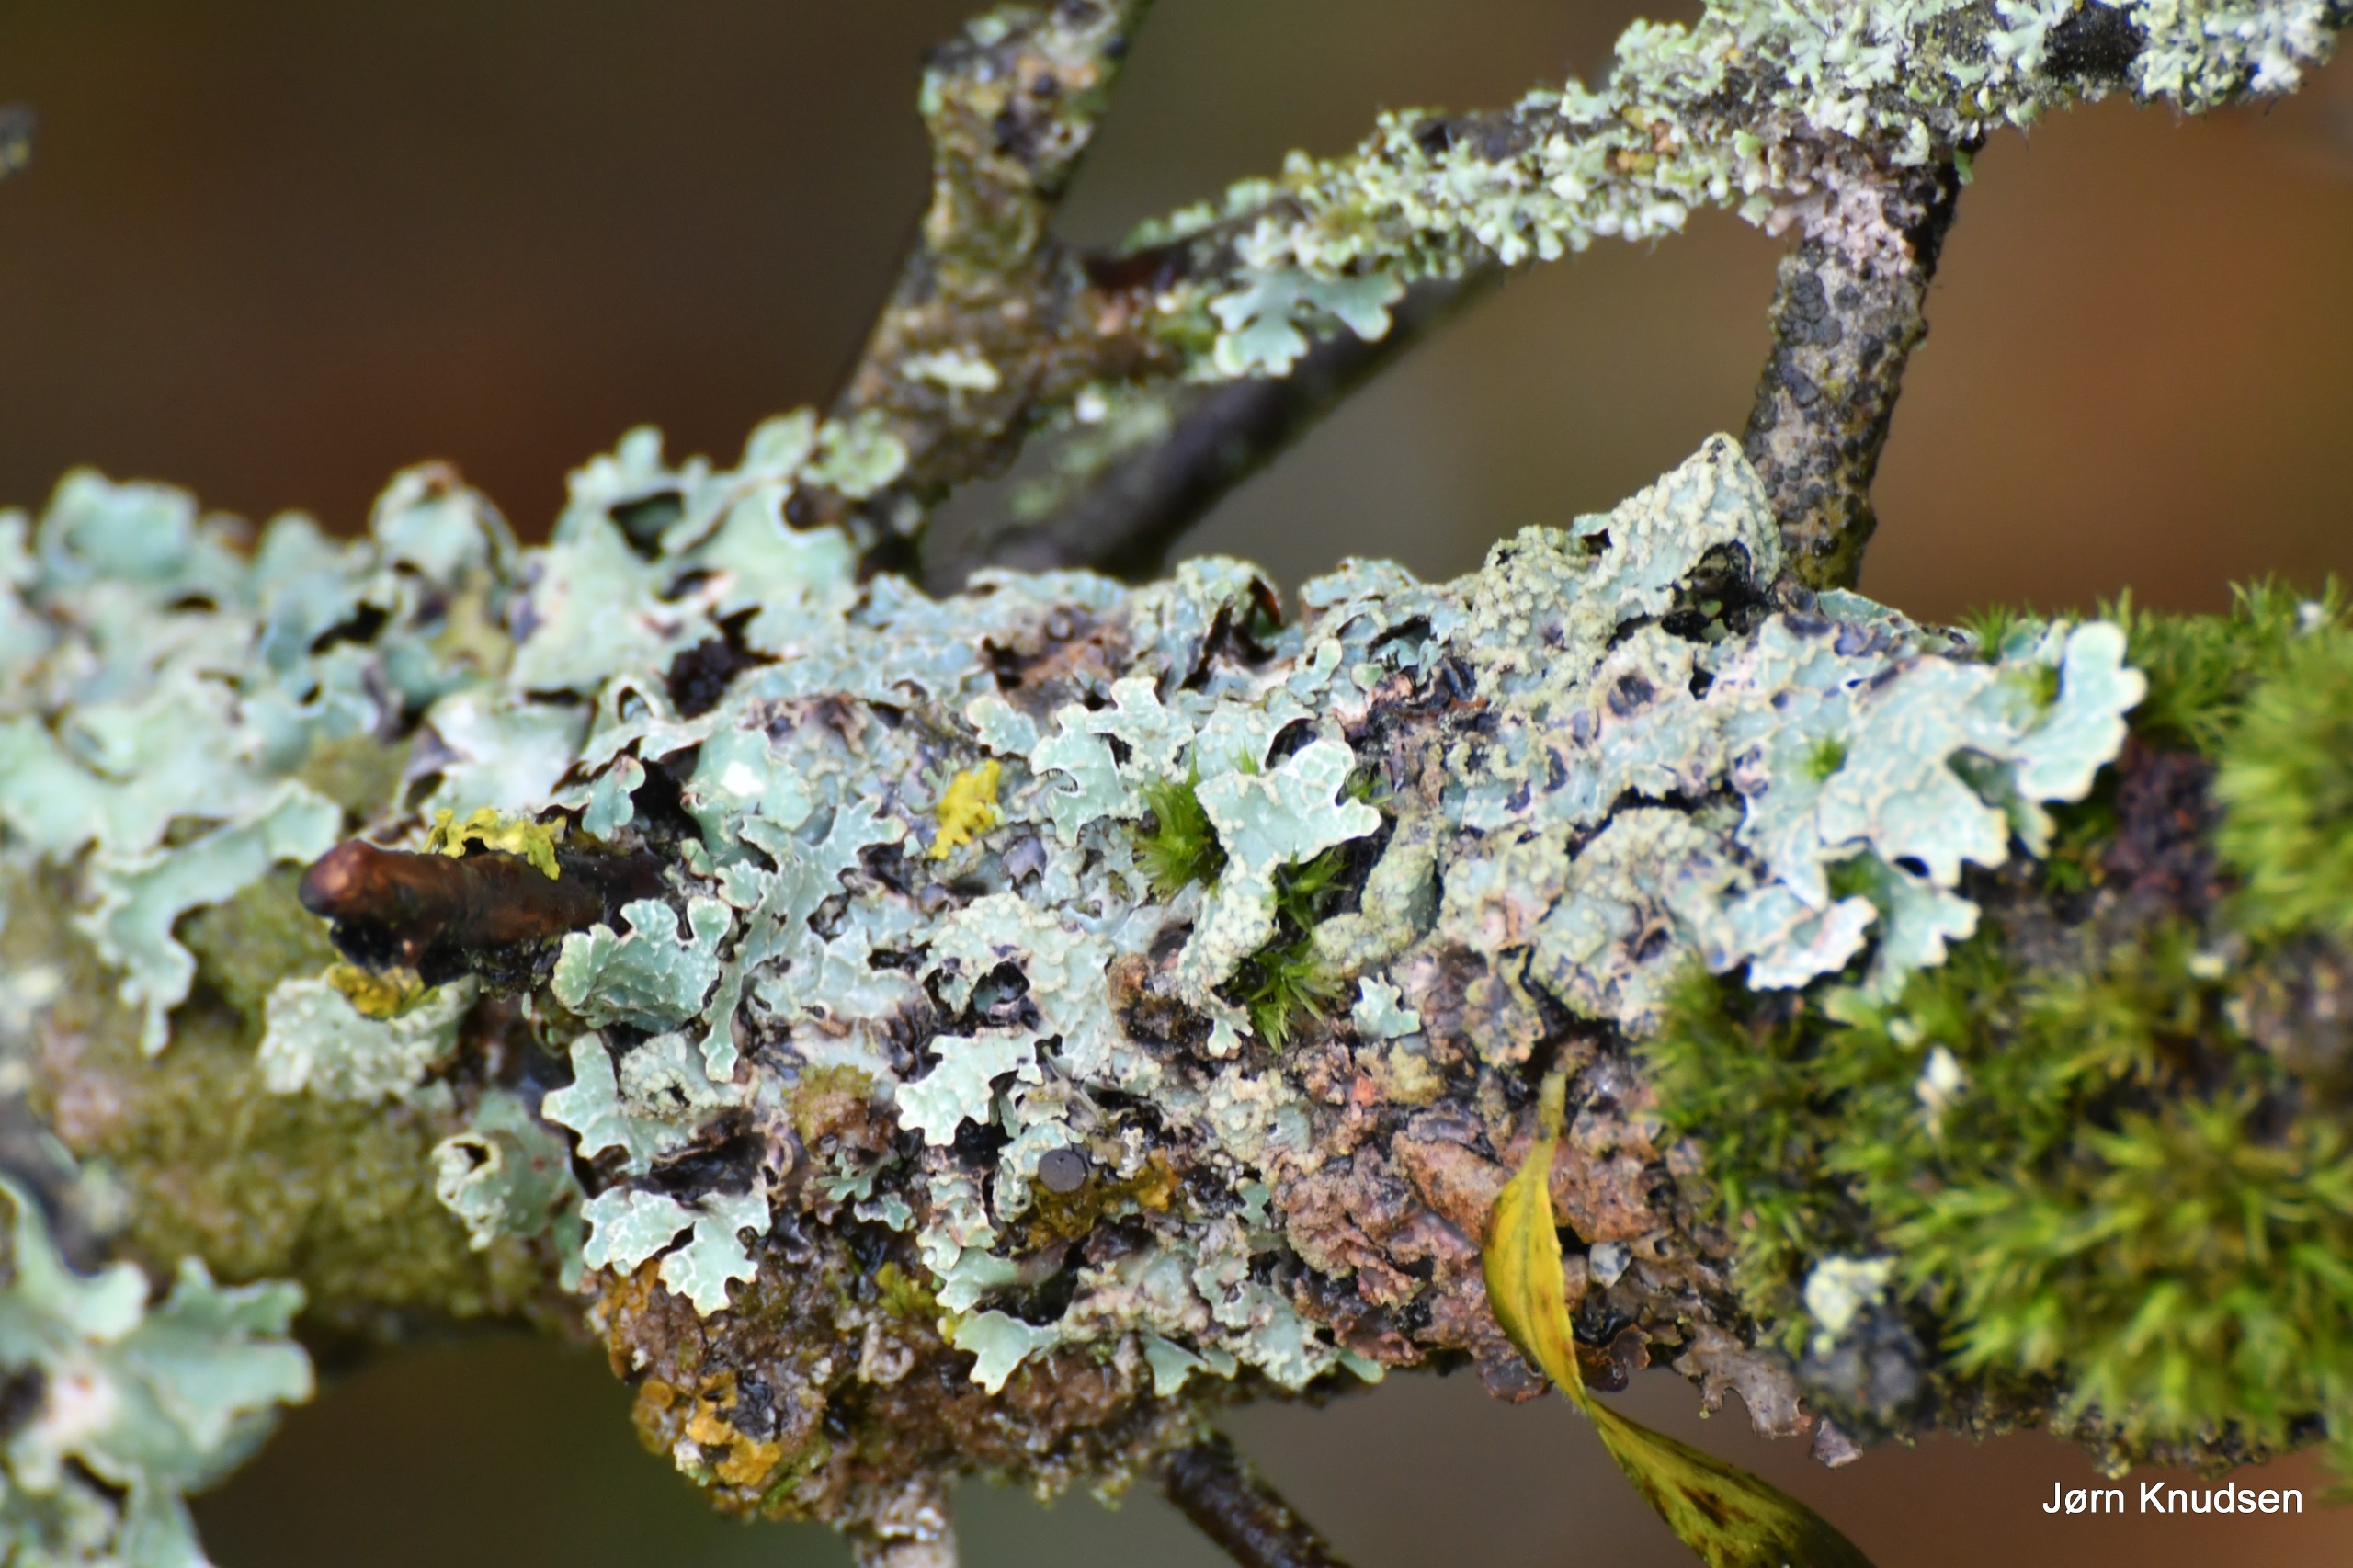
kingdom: Fungi
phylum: Ascomycota
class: Lecanoromycetes
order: Lecanorales
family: Parmeliaceae
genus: Parmelia
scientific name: Parmelia sulcata
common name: Rynket skållav
